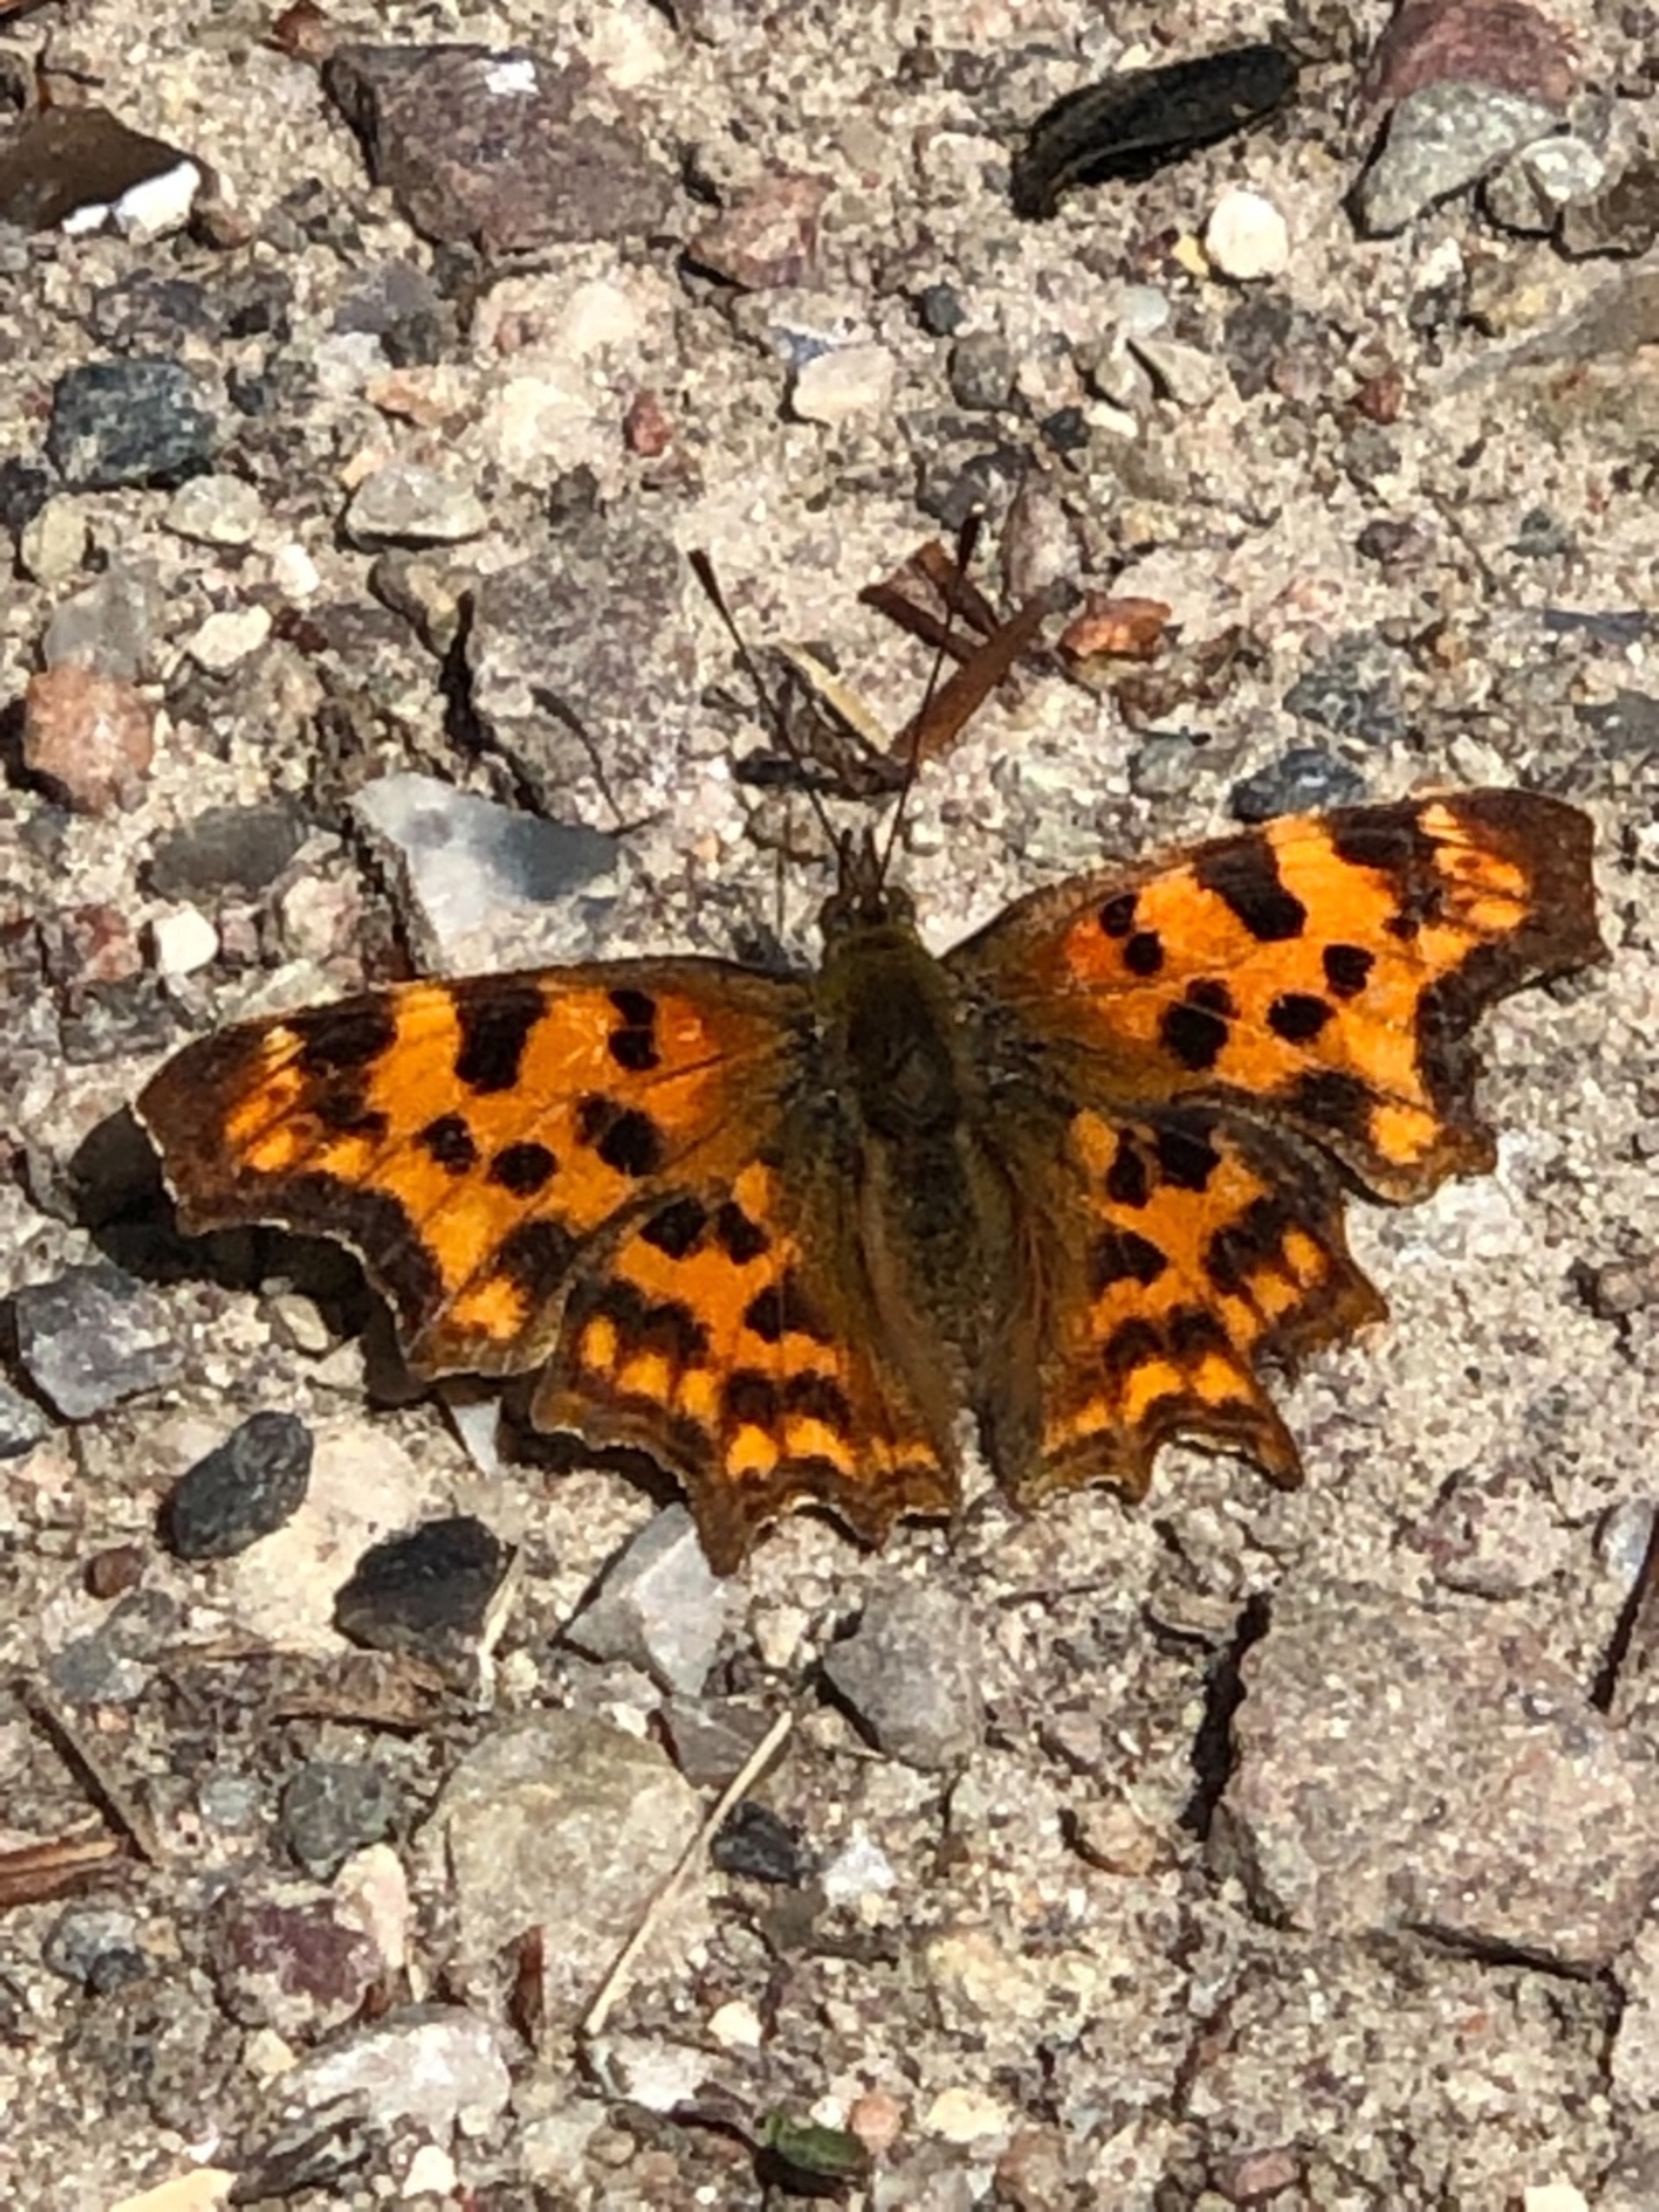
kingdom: Animalia
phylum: Arthropoda
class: Insecta
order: Lepidoptera
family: Nymphalidae
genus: Polygonia
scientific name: Polygonia c-album
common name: Det hvide C
